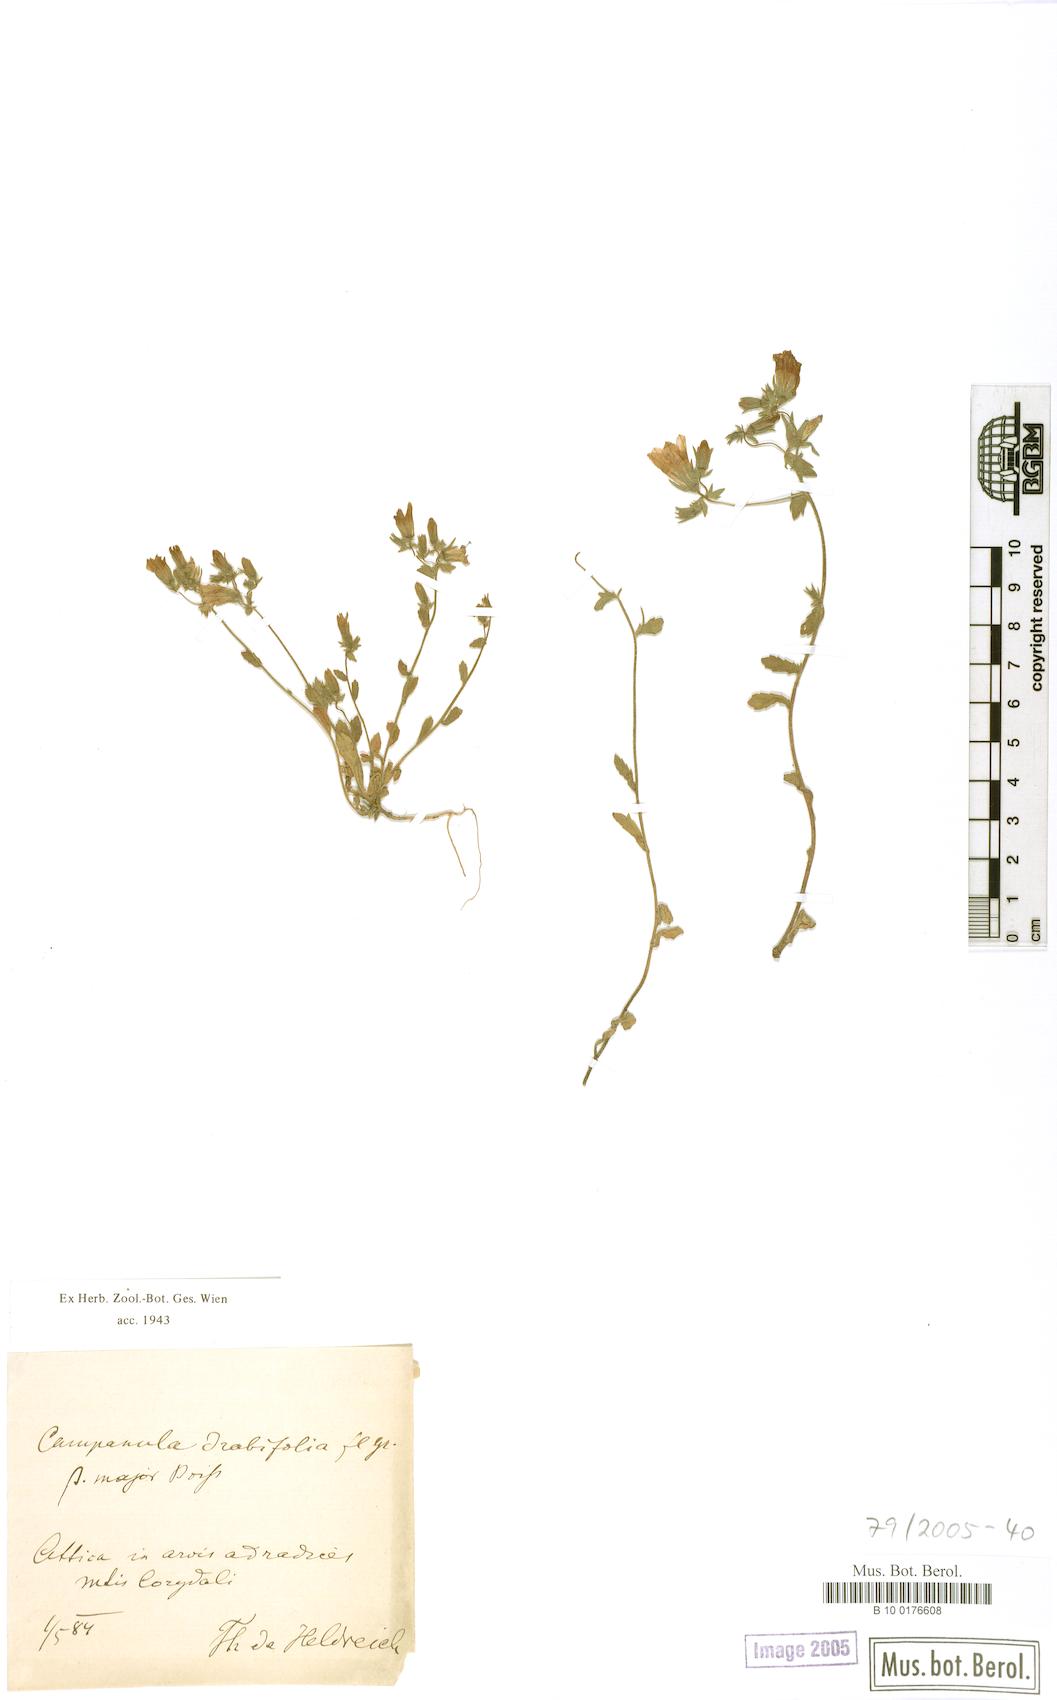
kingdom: Plantae
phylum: Tracheophyta
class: Magnoliopsida
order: Asterales
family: Campanulaceae
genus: Campanula
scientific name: Campanula drabifolia
